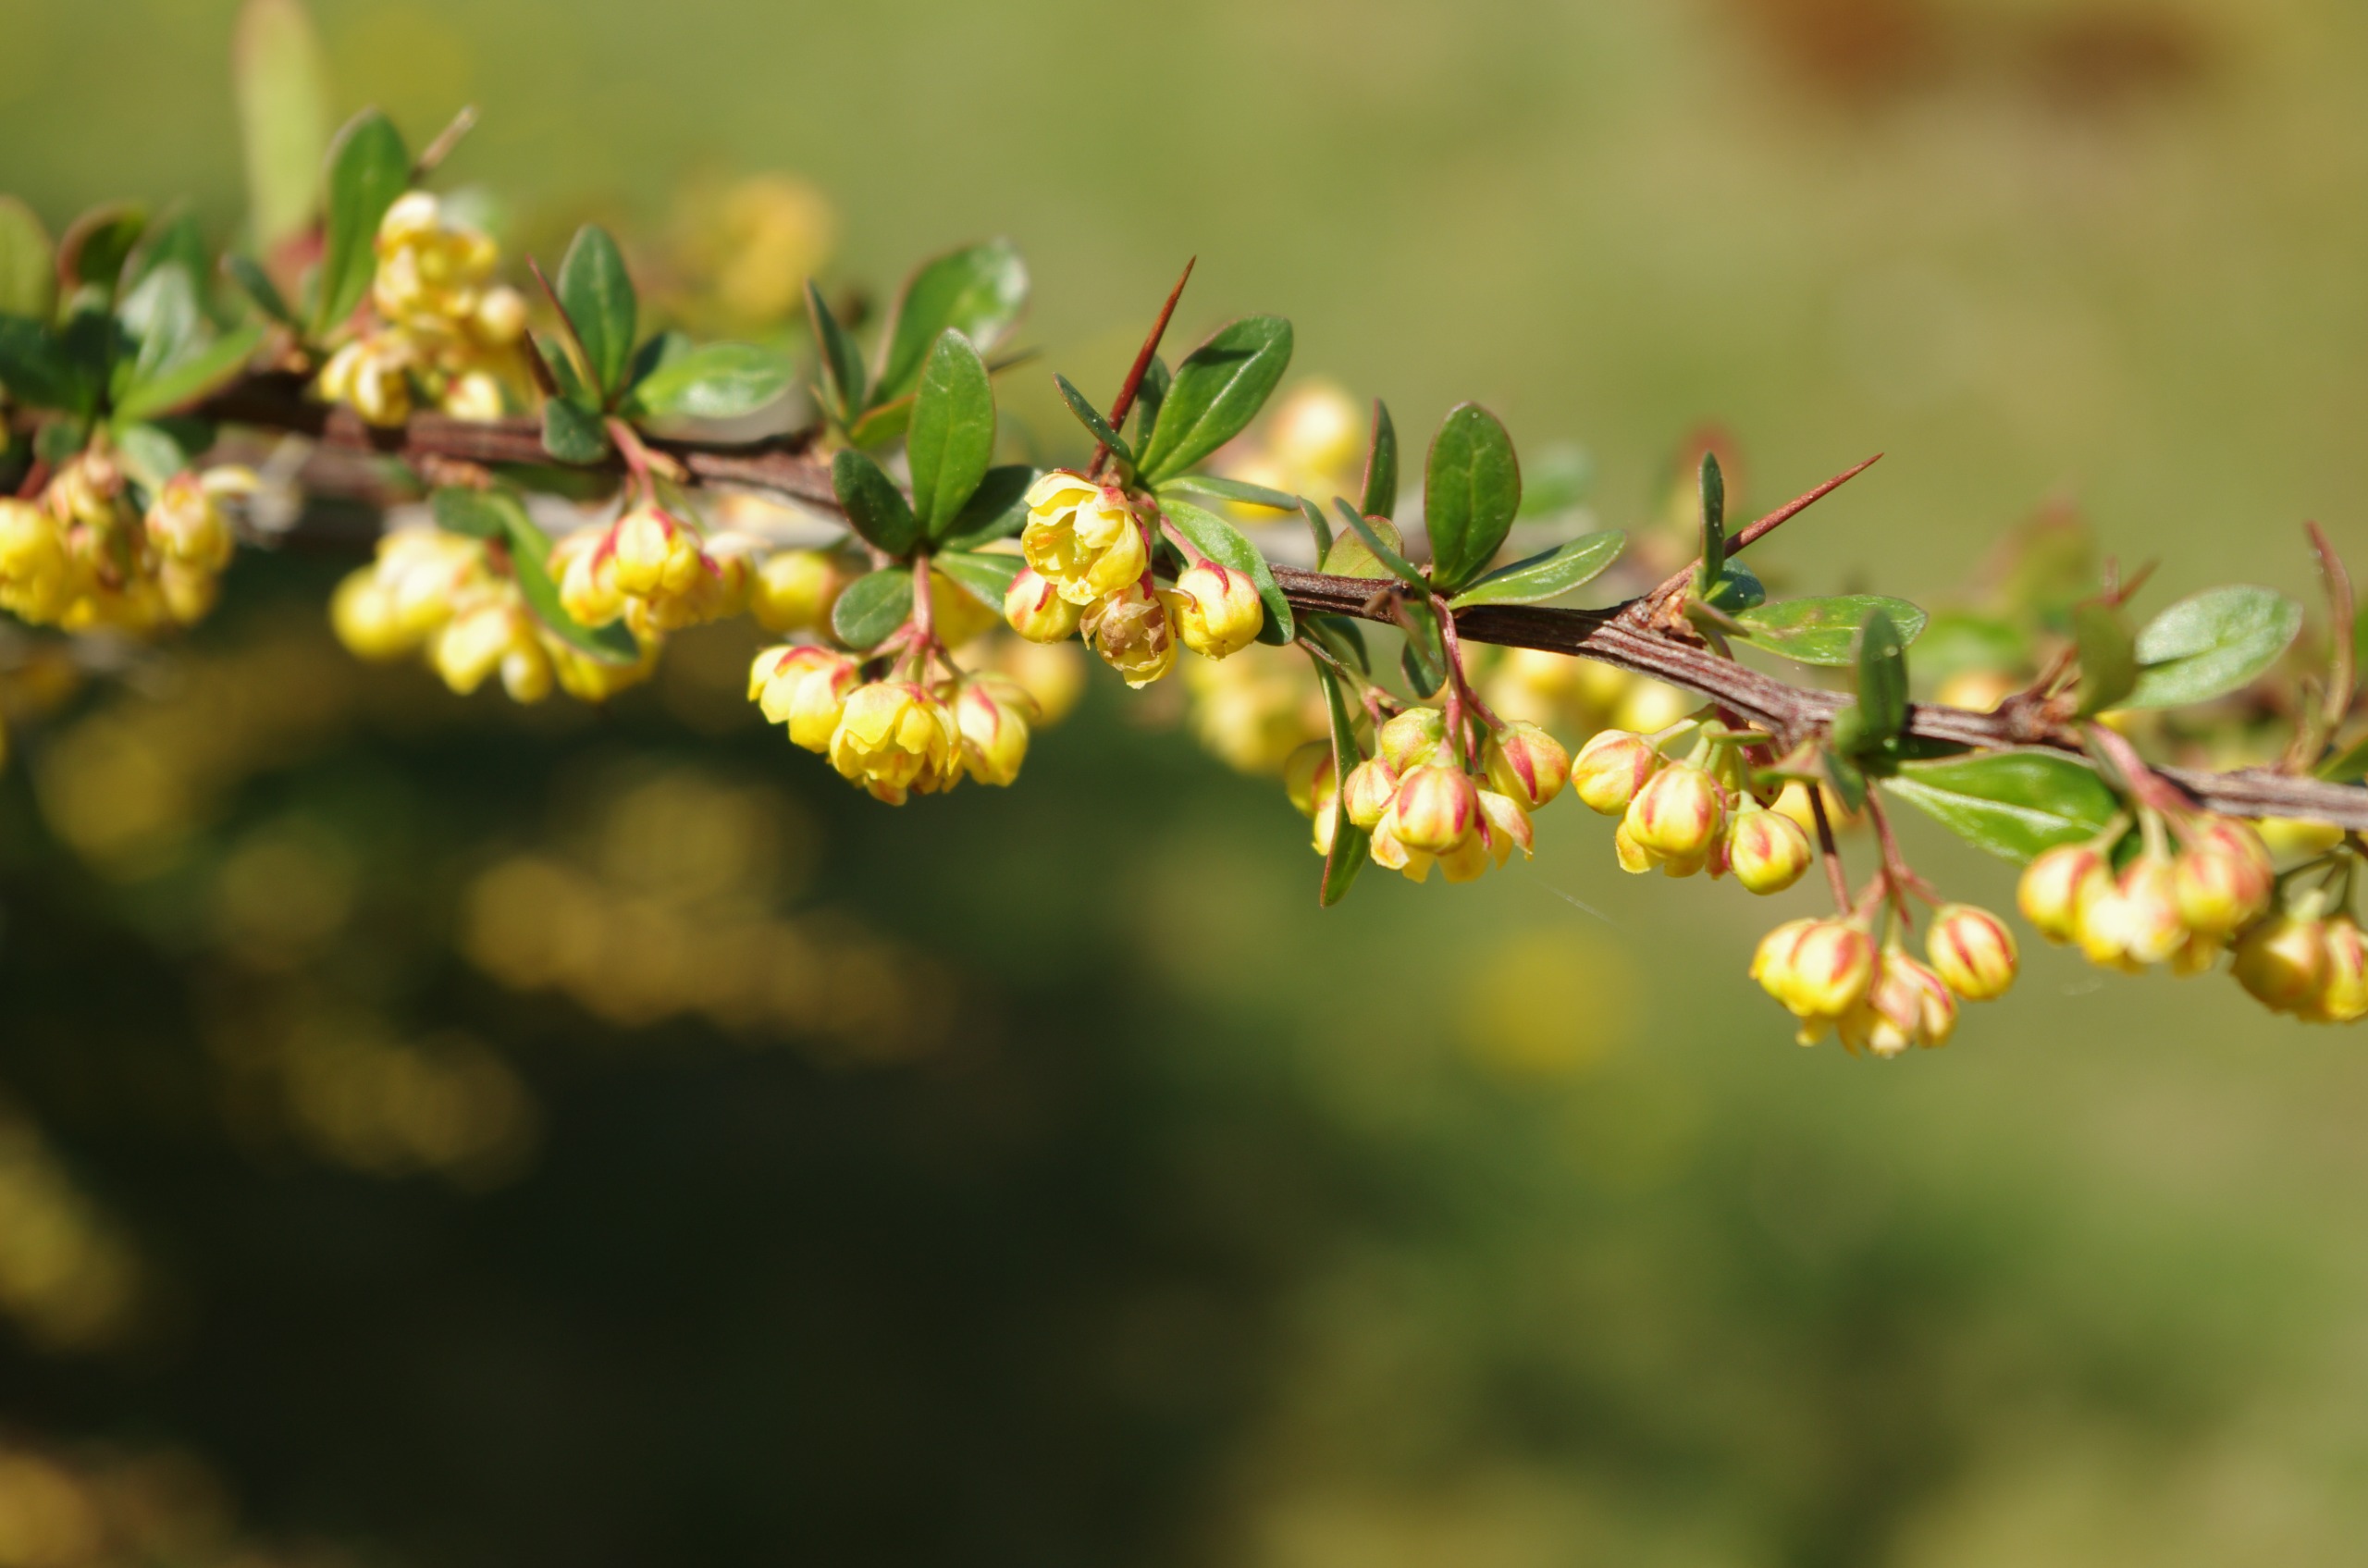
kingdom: Plantae
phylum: Tracheophyta
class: Magnoliopsida
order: Ranunculales
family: Berberidaceae
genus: Berberis
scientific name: Berberis thunbergii
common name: Hæk-berberis
